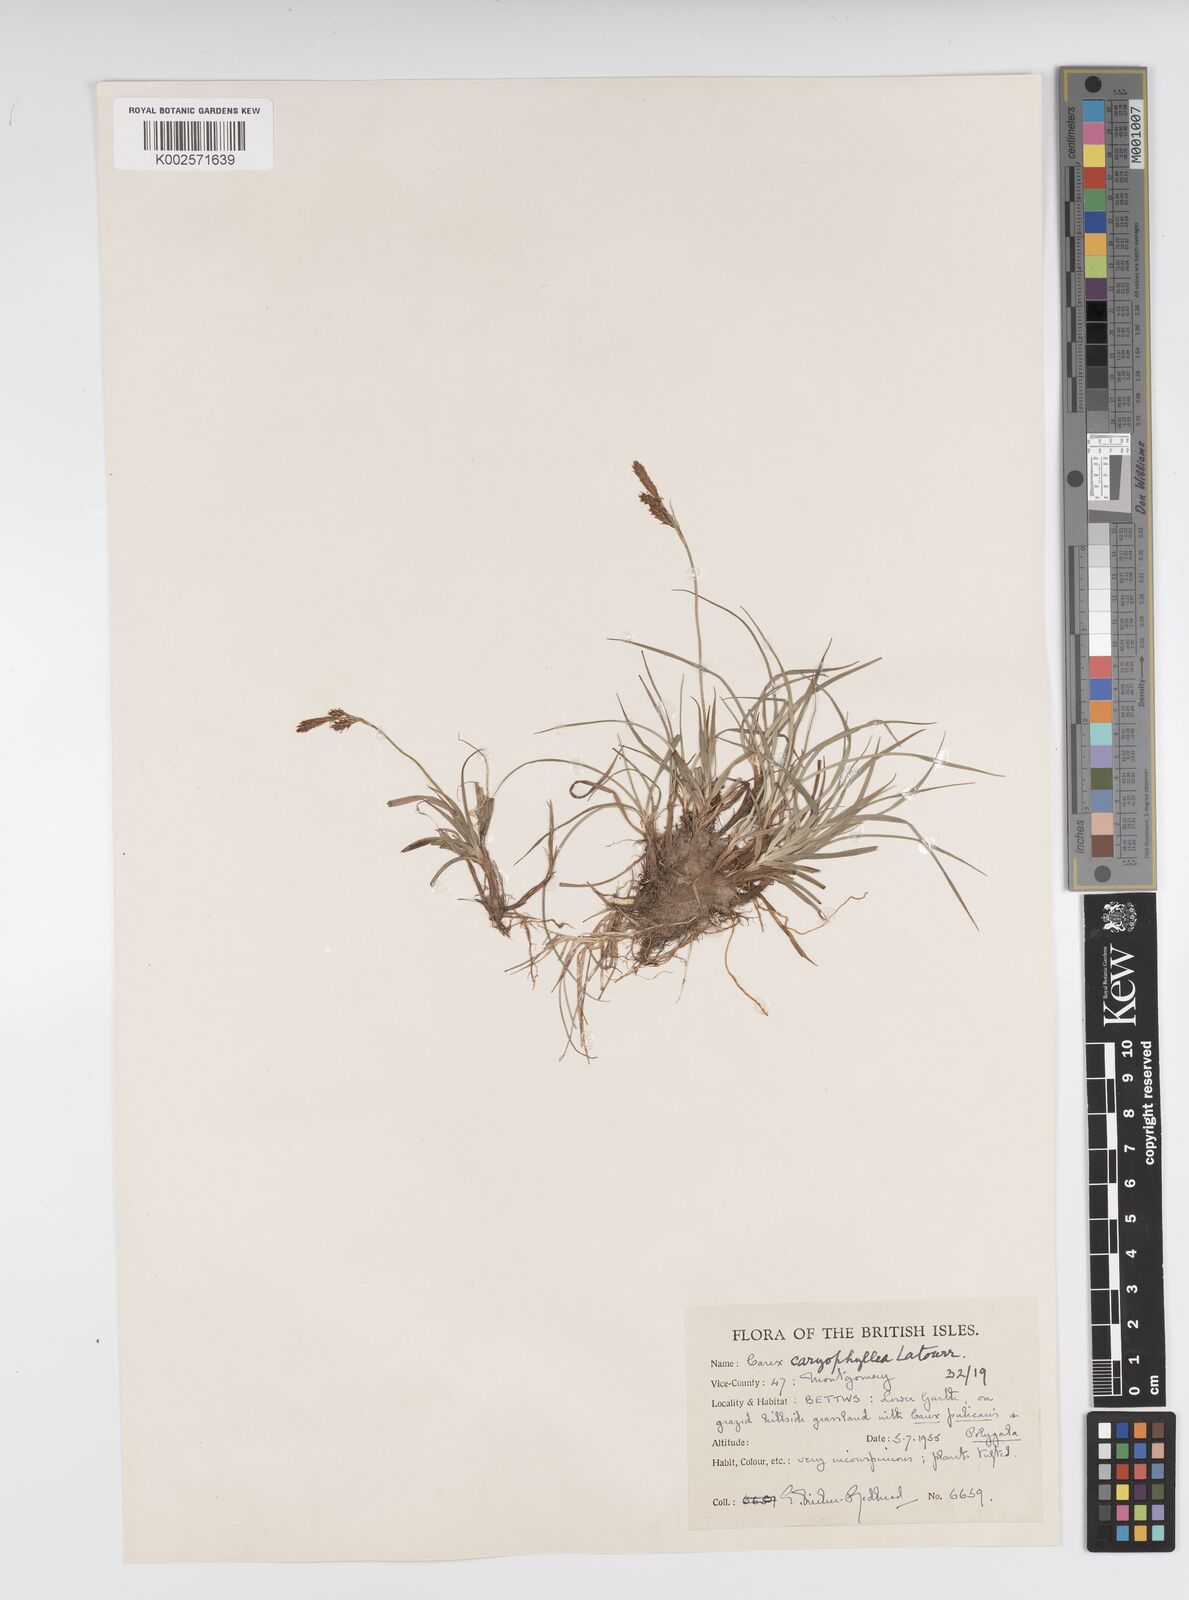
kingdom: Plantae
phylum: Tracheophyta
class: Liliopsida
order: Poales
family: Cyperaceae
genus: Carex
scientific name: Carex caryophyllea
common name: Spring sedge
